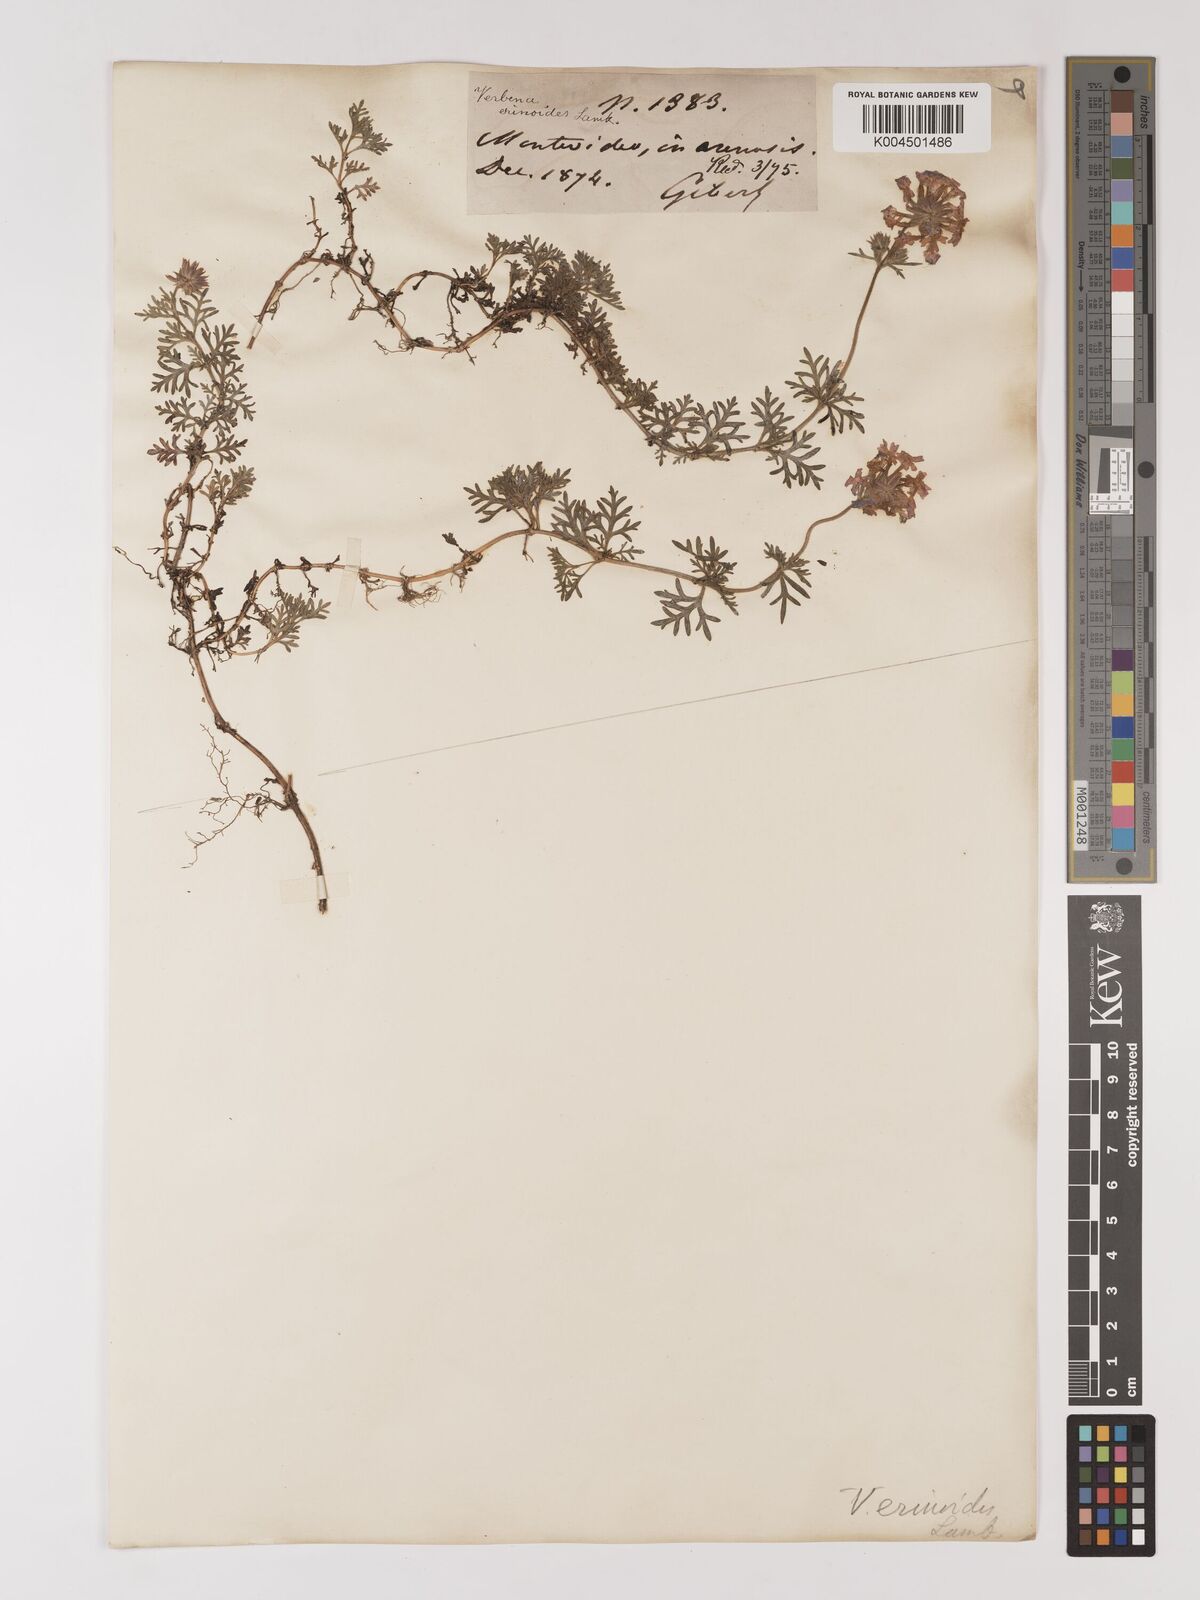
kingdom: Plantae
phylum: Tracheophyta
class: Magnoliopsida
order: Lamiales
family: Verbenaceae
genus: Verbena
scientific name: Verbena tenera
